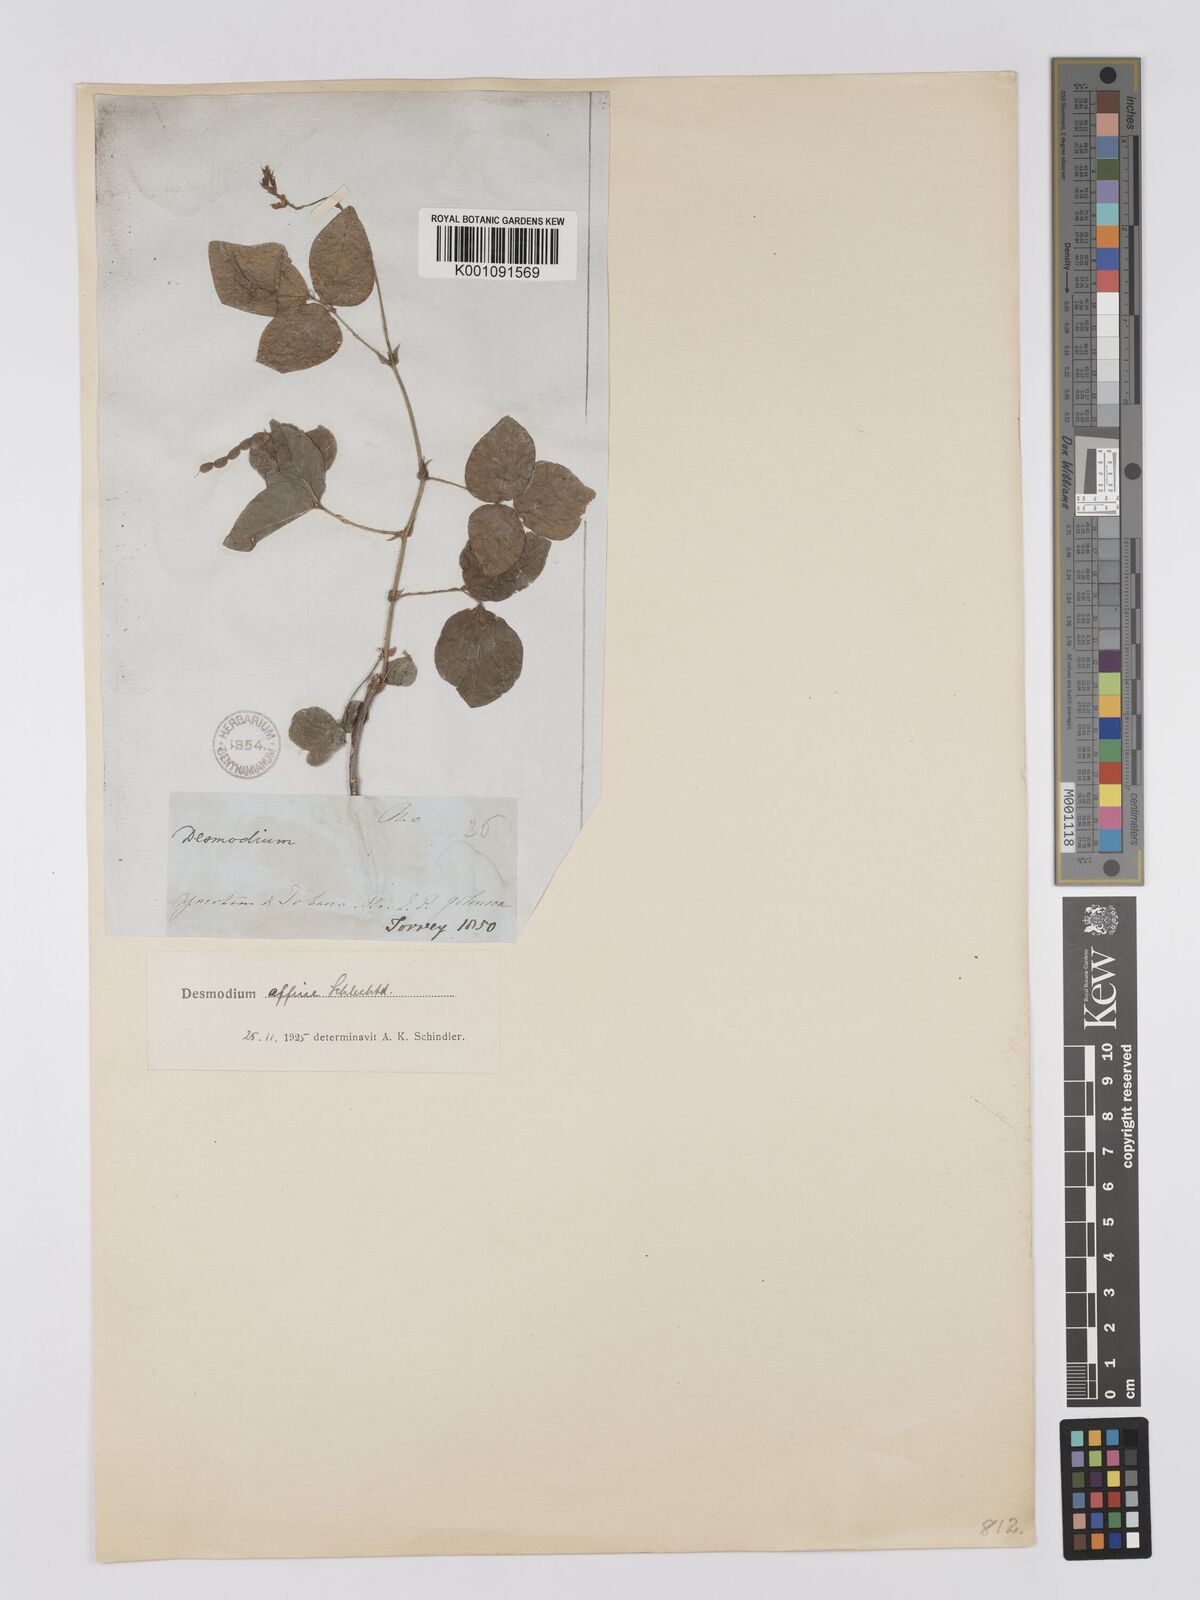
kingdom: Plantae
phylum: Tracheophyta
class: Magnoliopsida
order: Fabales
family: Fabaceae
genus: Desmodium
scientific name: Desmodium affine
